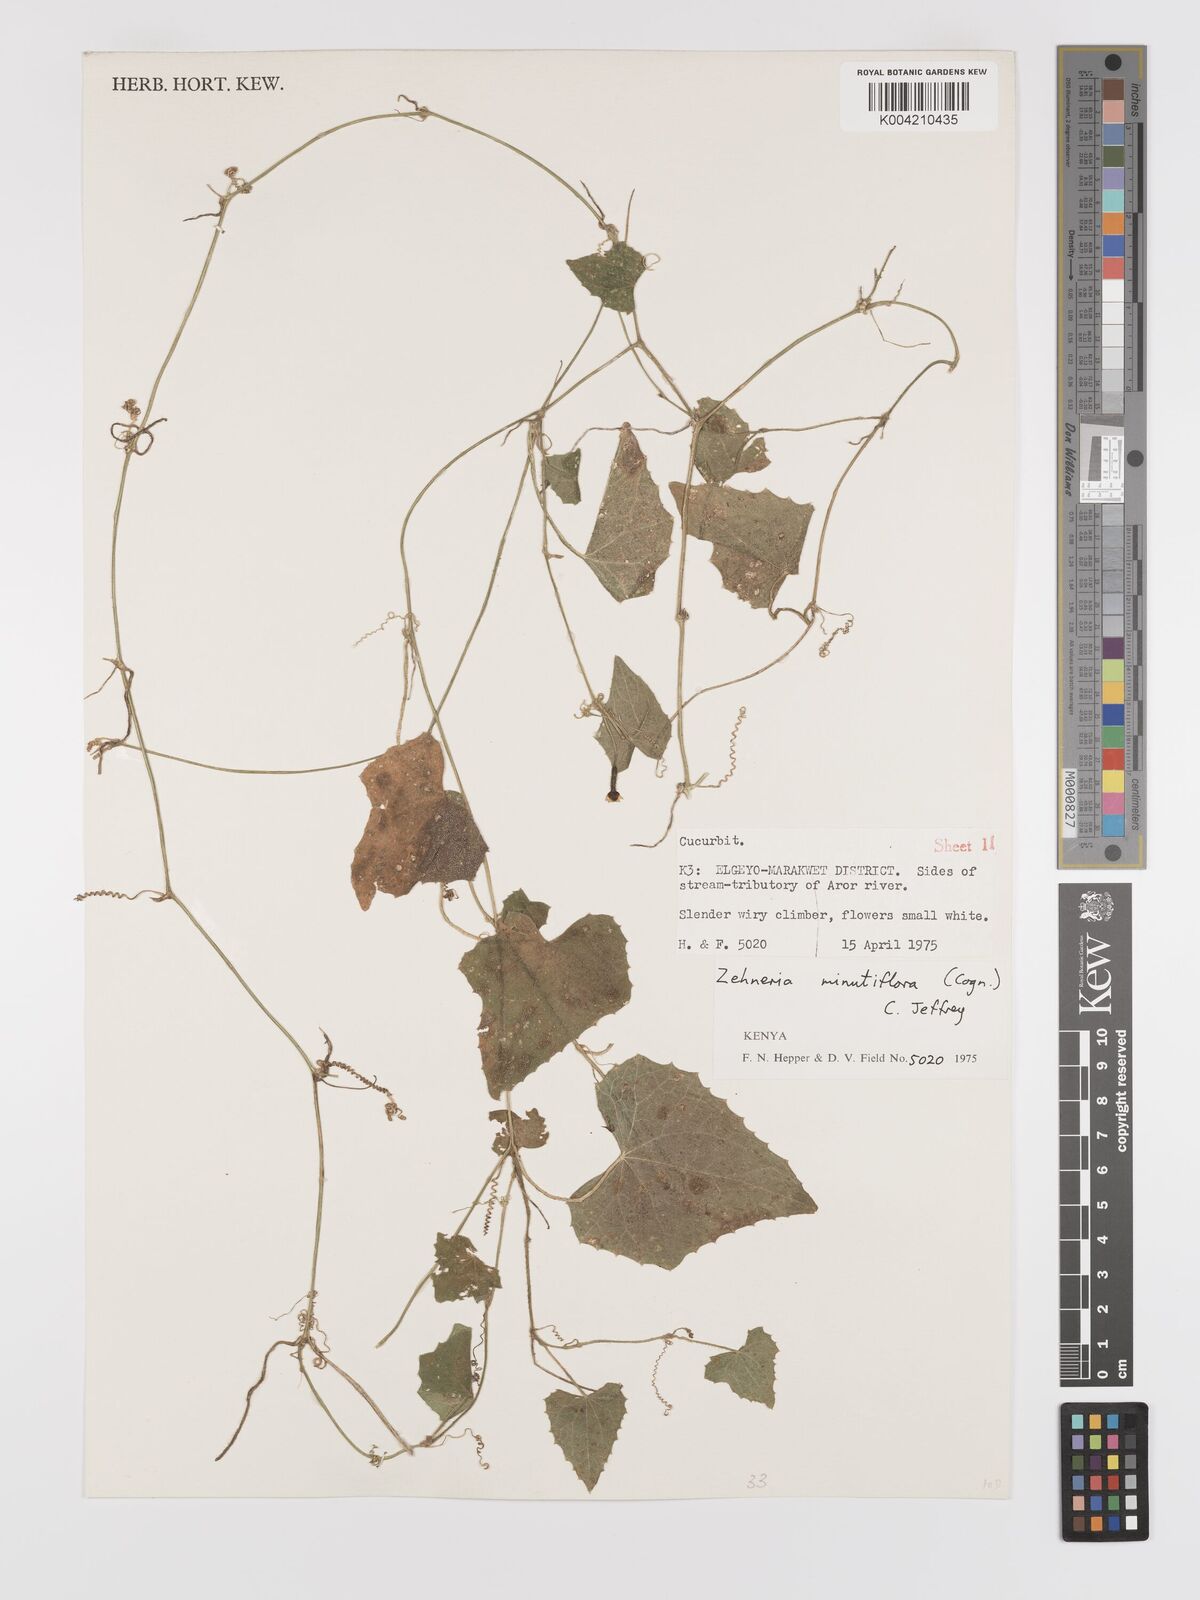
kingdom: Plantae
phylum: Tracheophyta
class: Magnoliopsida
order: Cucurbitales
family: Cucurbitaceae
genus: Zehneria
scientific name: Zehneria minutiflora
